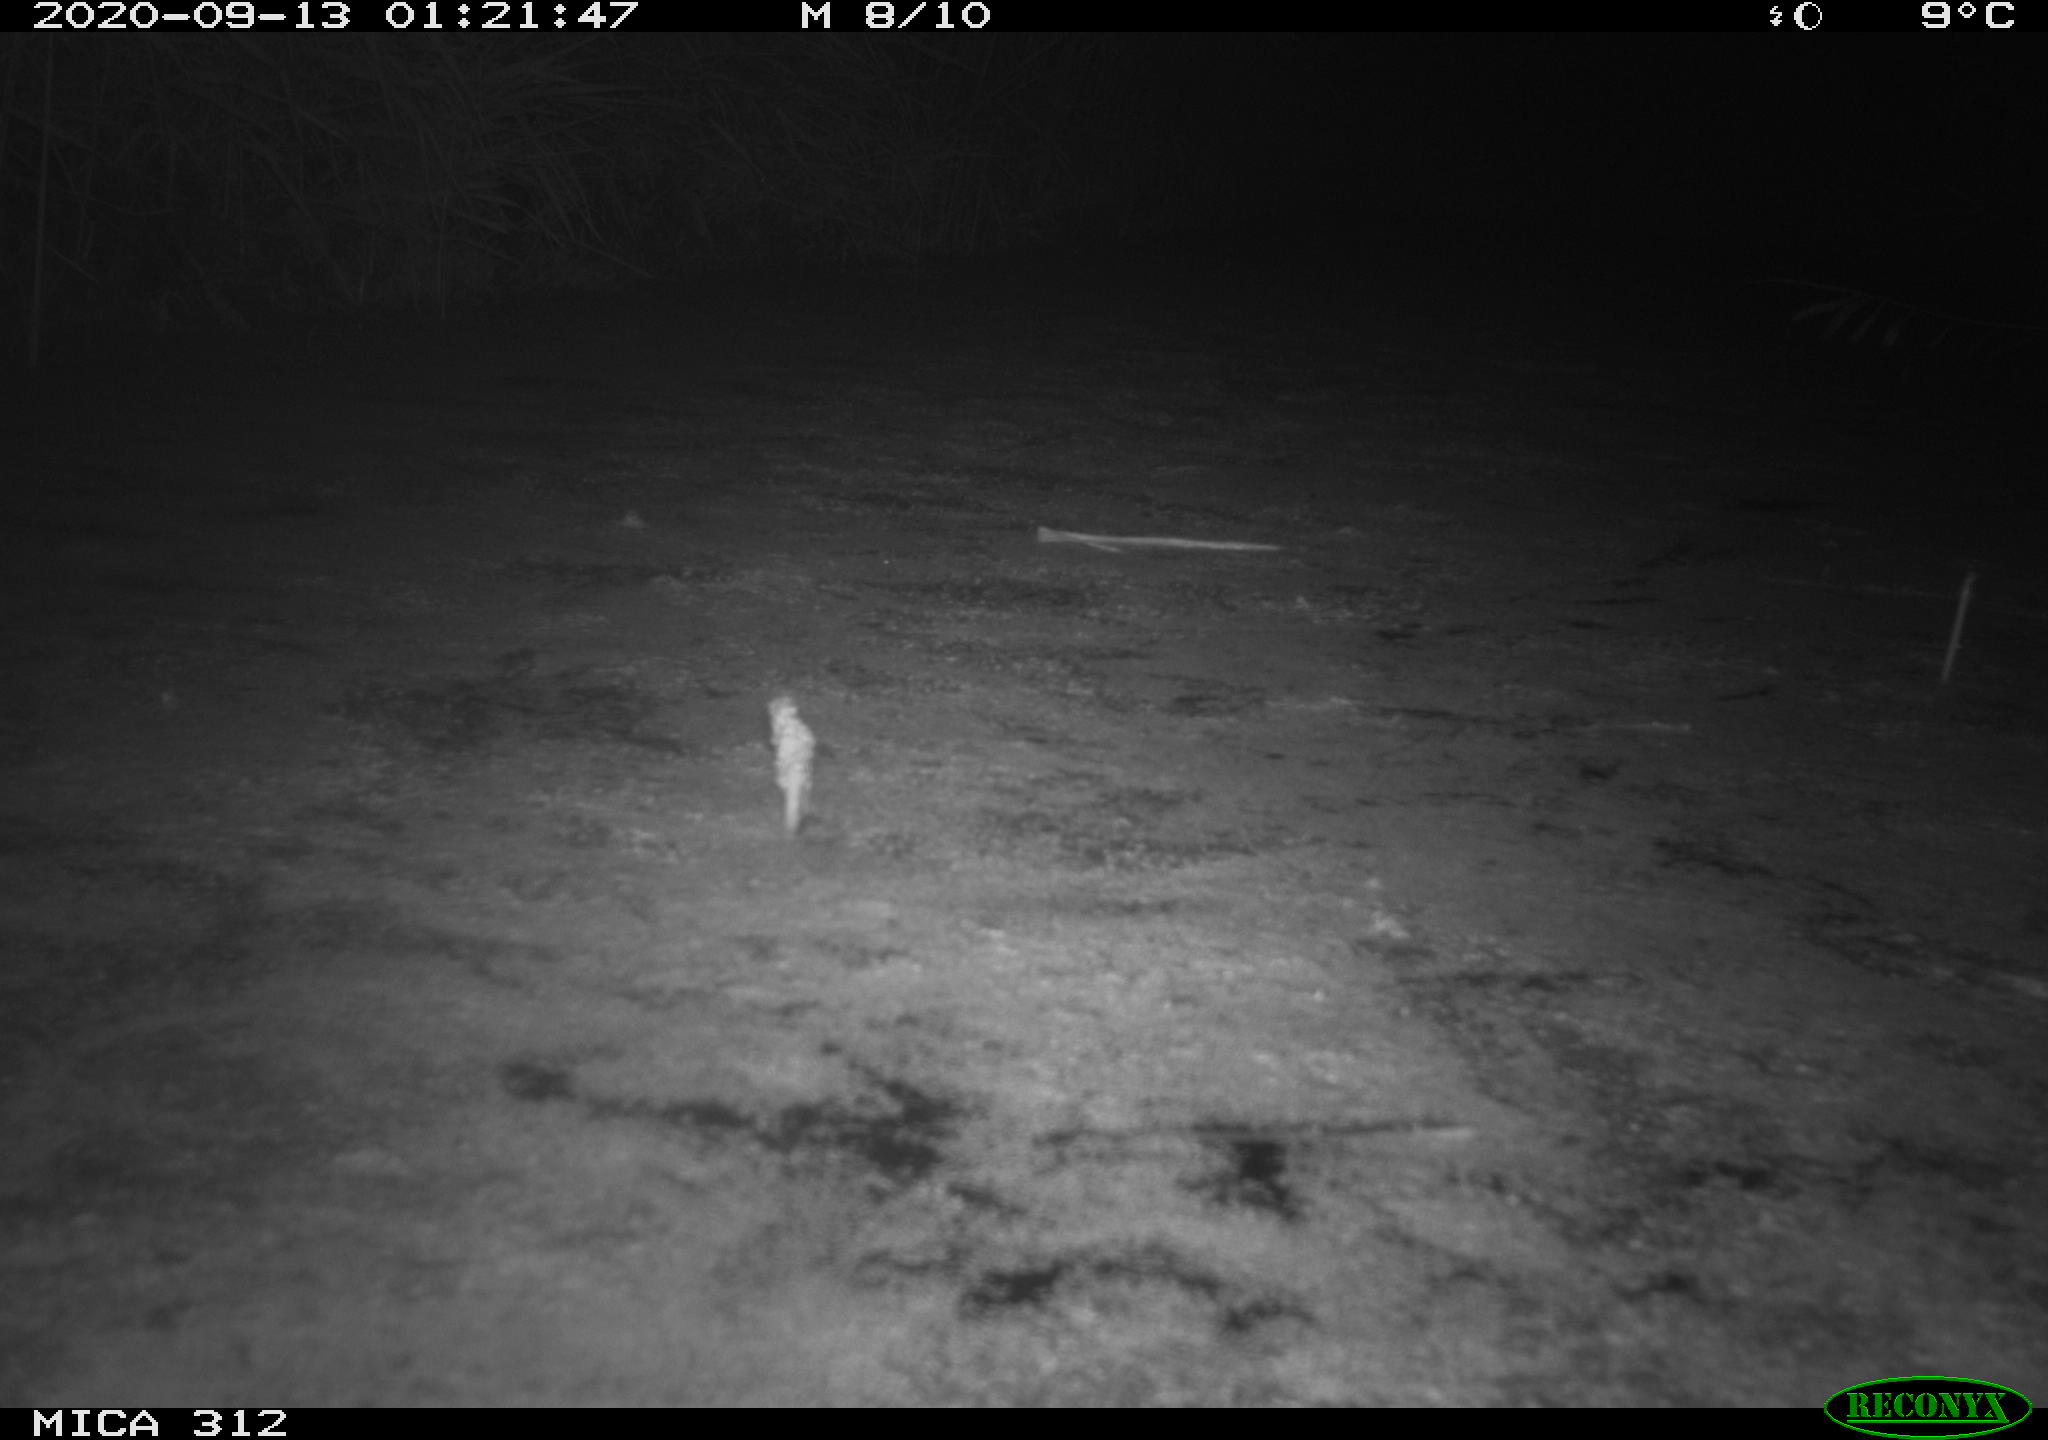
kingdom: Animalia
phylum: Chordata
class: Mammalia
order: Rodentia
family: Muridae
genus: Rattus
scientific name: Rattus norvegicus
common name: Brown rat
